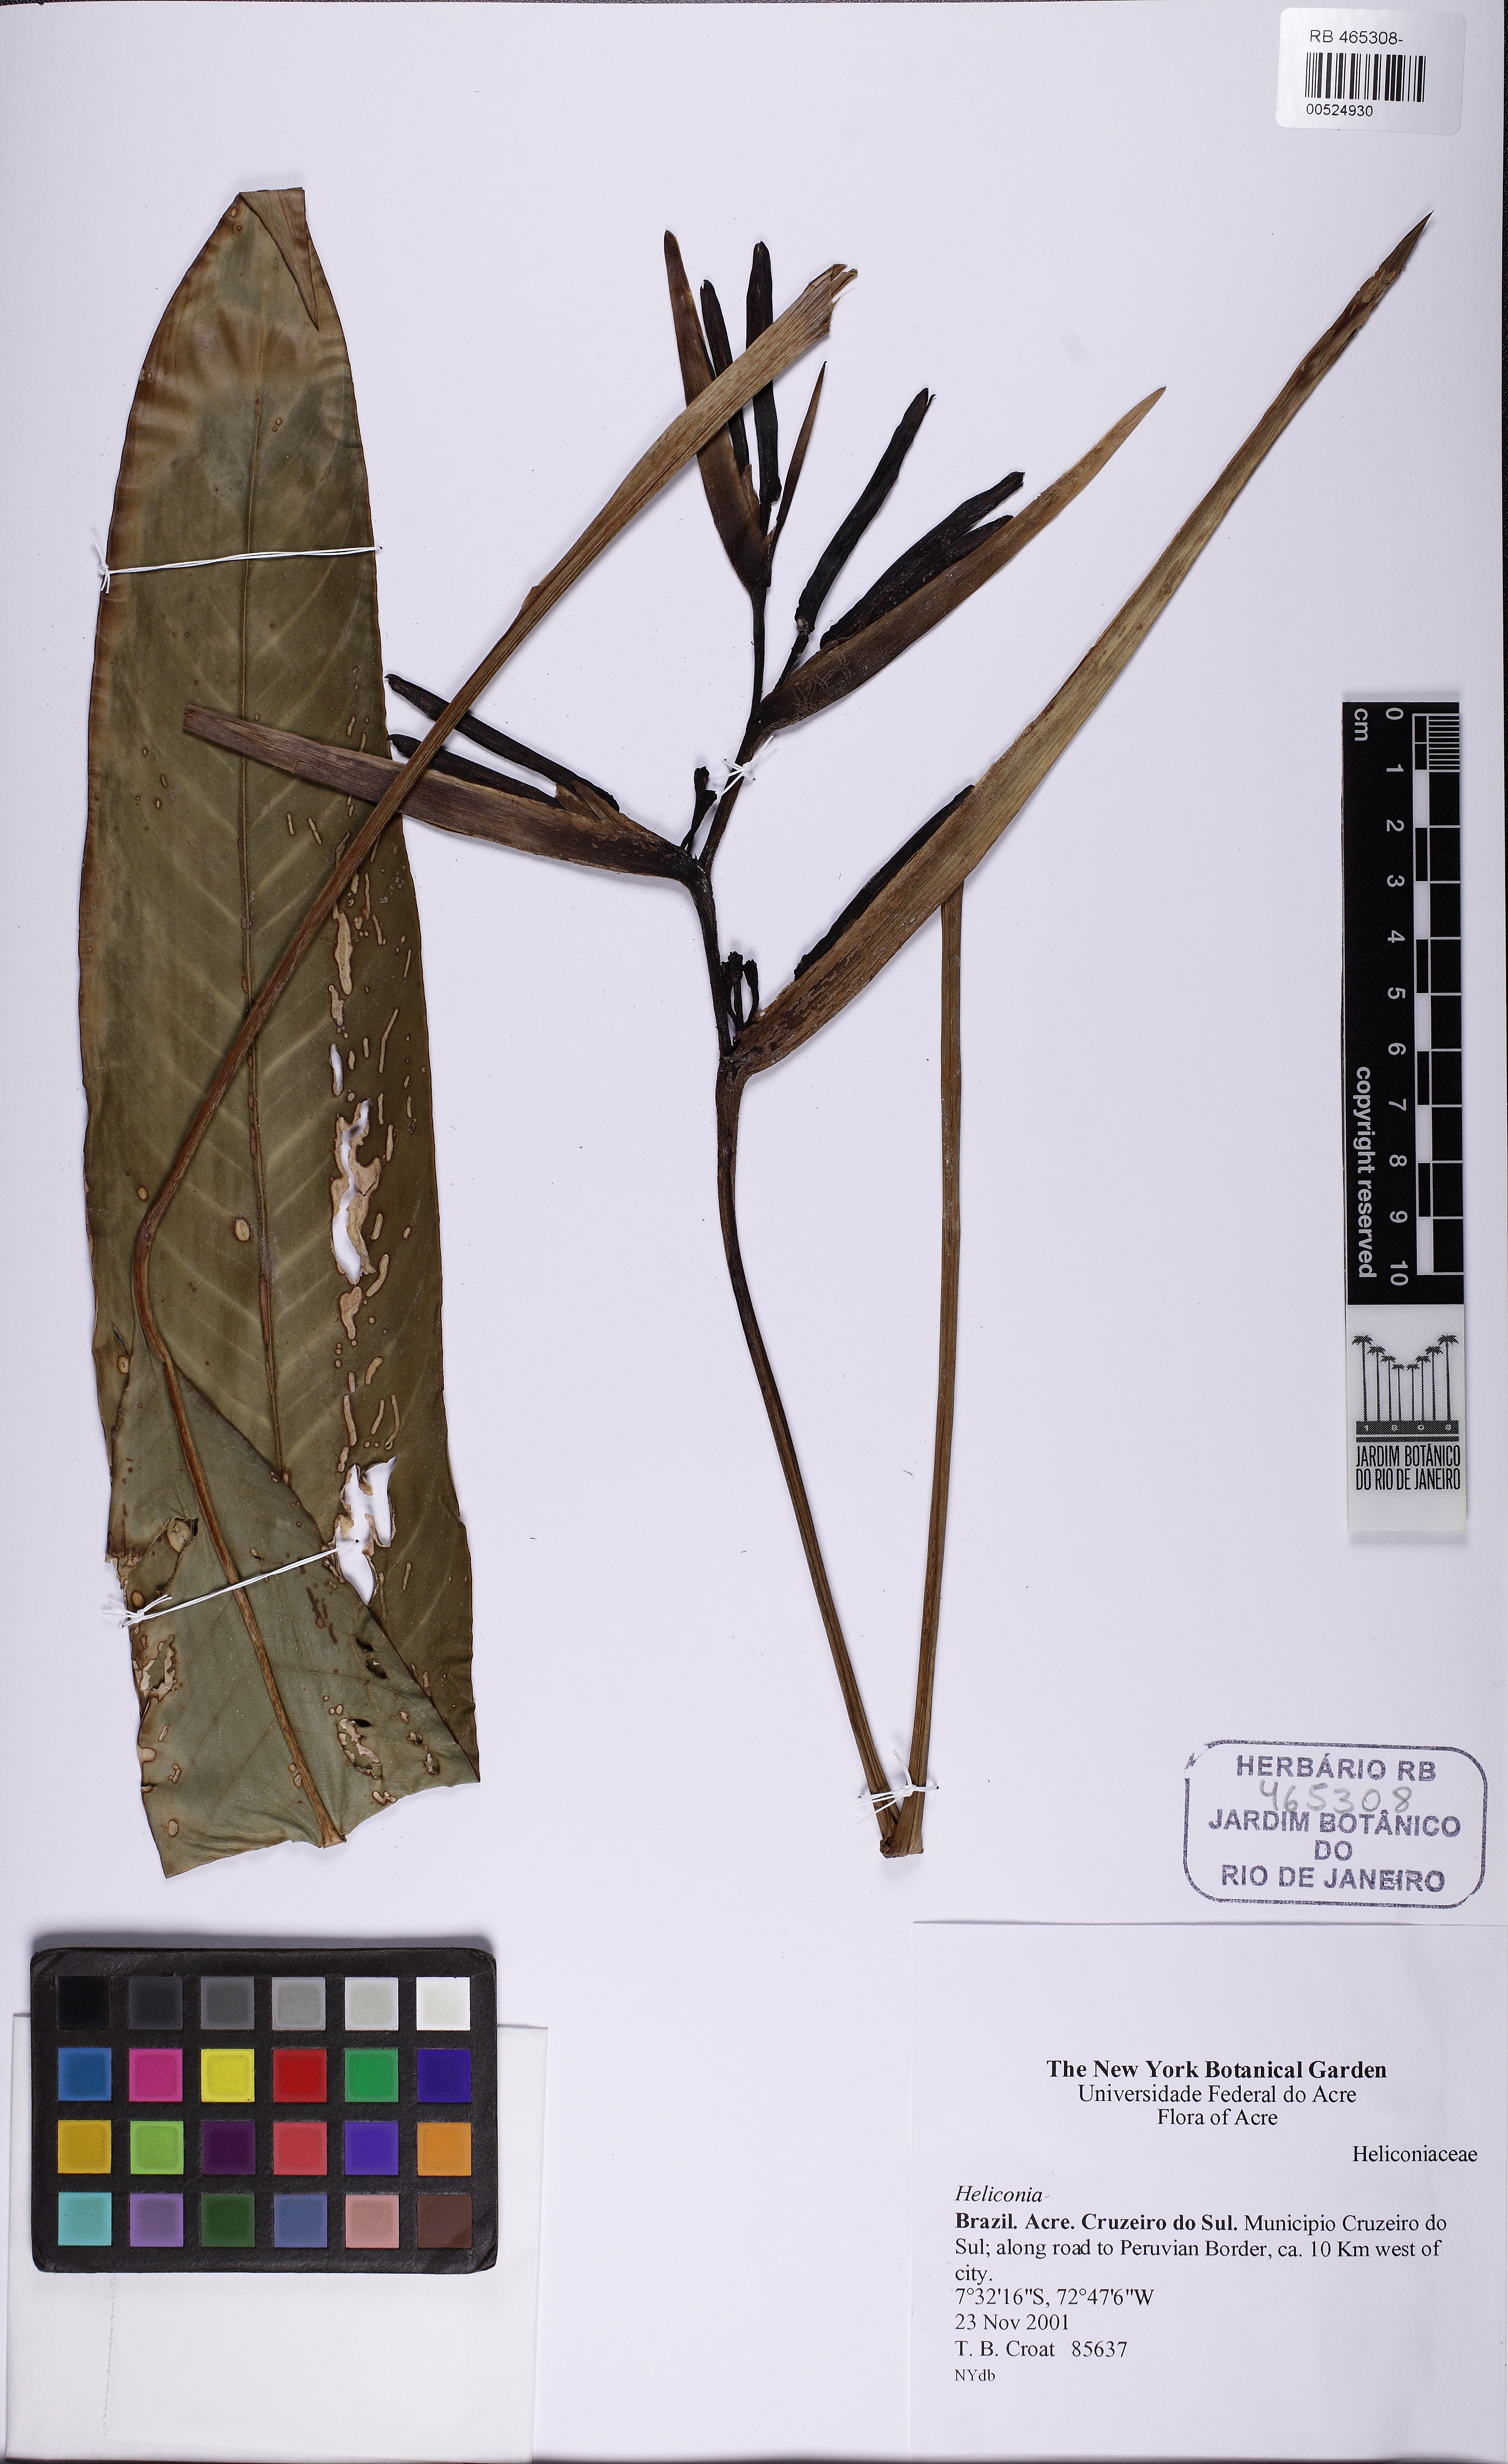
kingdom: Plantae
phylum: Tracheophyta
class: Liliopsida
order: Zingiberales
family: Heliconiaceae
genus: Heliconia
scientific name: Heliconia psittacorum
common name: Parrot's-flower
